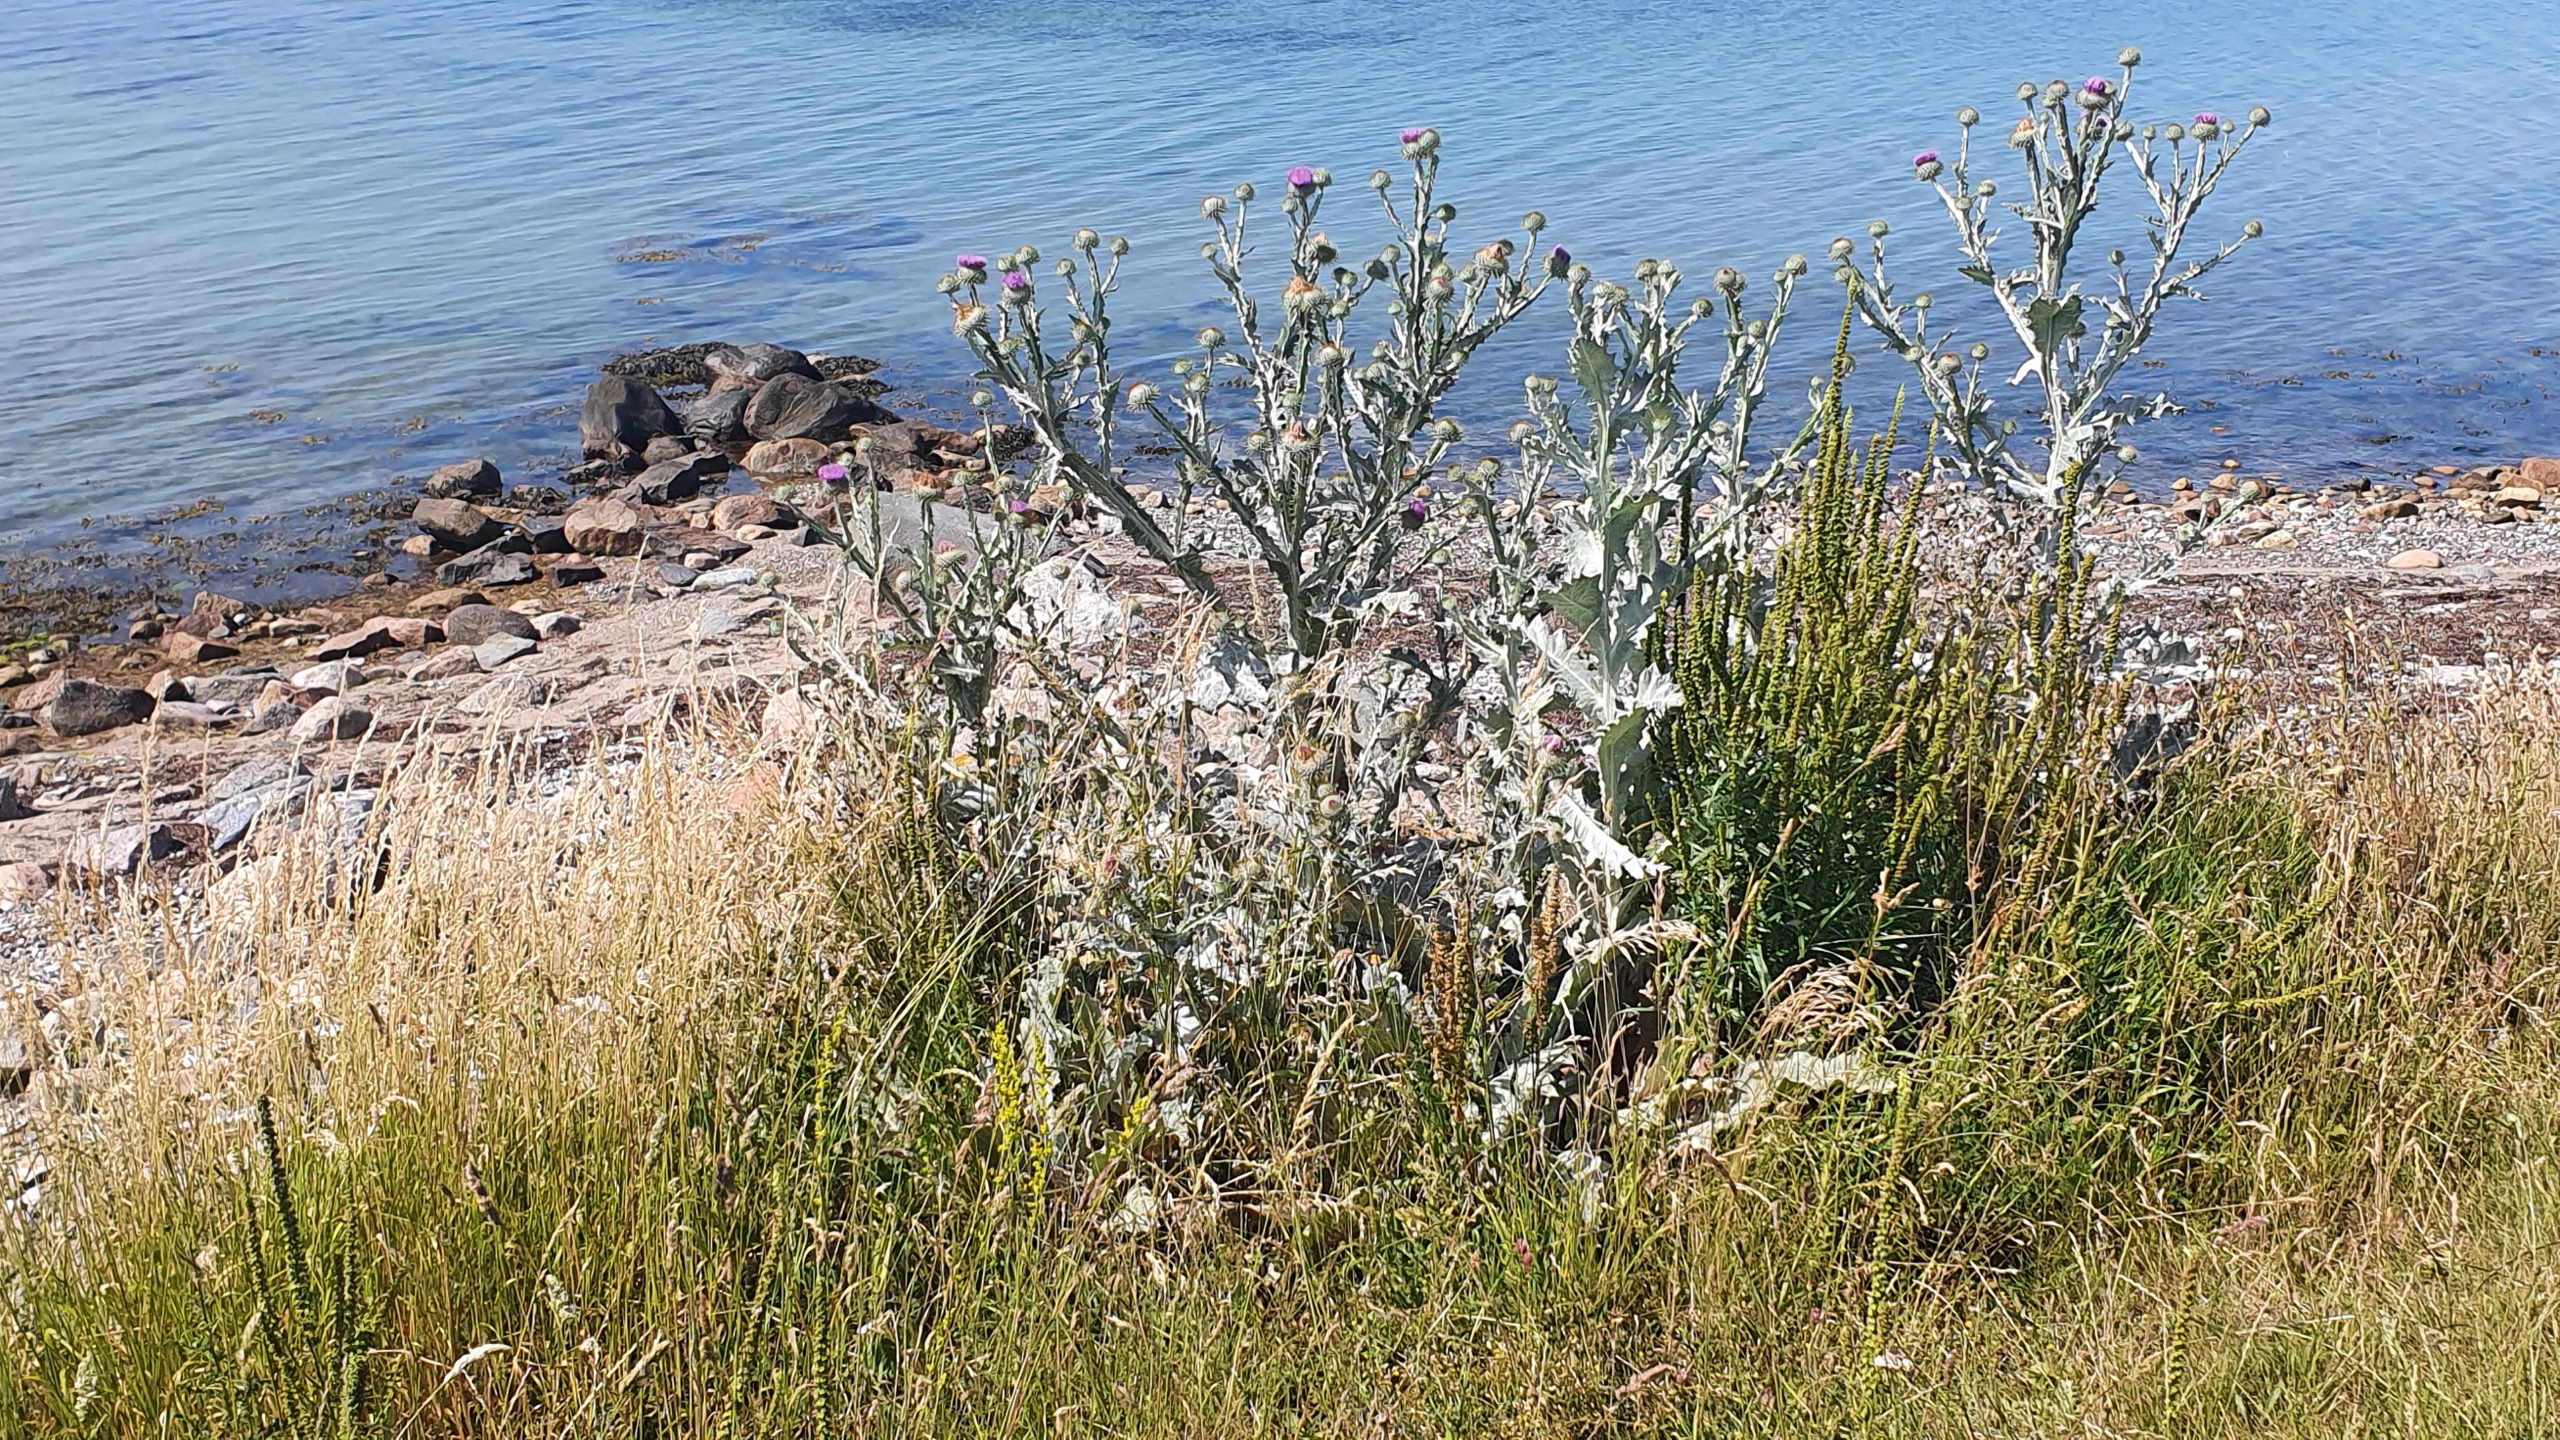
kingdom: Plantae
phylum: Tracheophyta
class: Magnoliopsida
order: Asterales
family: Asteraceae
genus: Onopordum
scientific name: Onopordum acanthium
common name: Æselfoder
